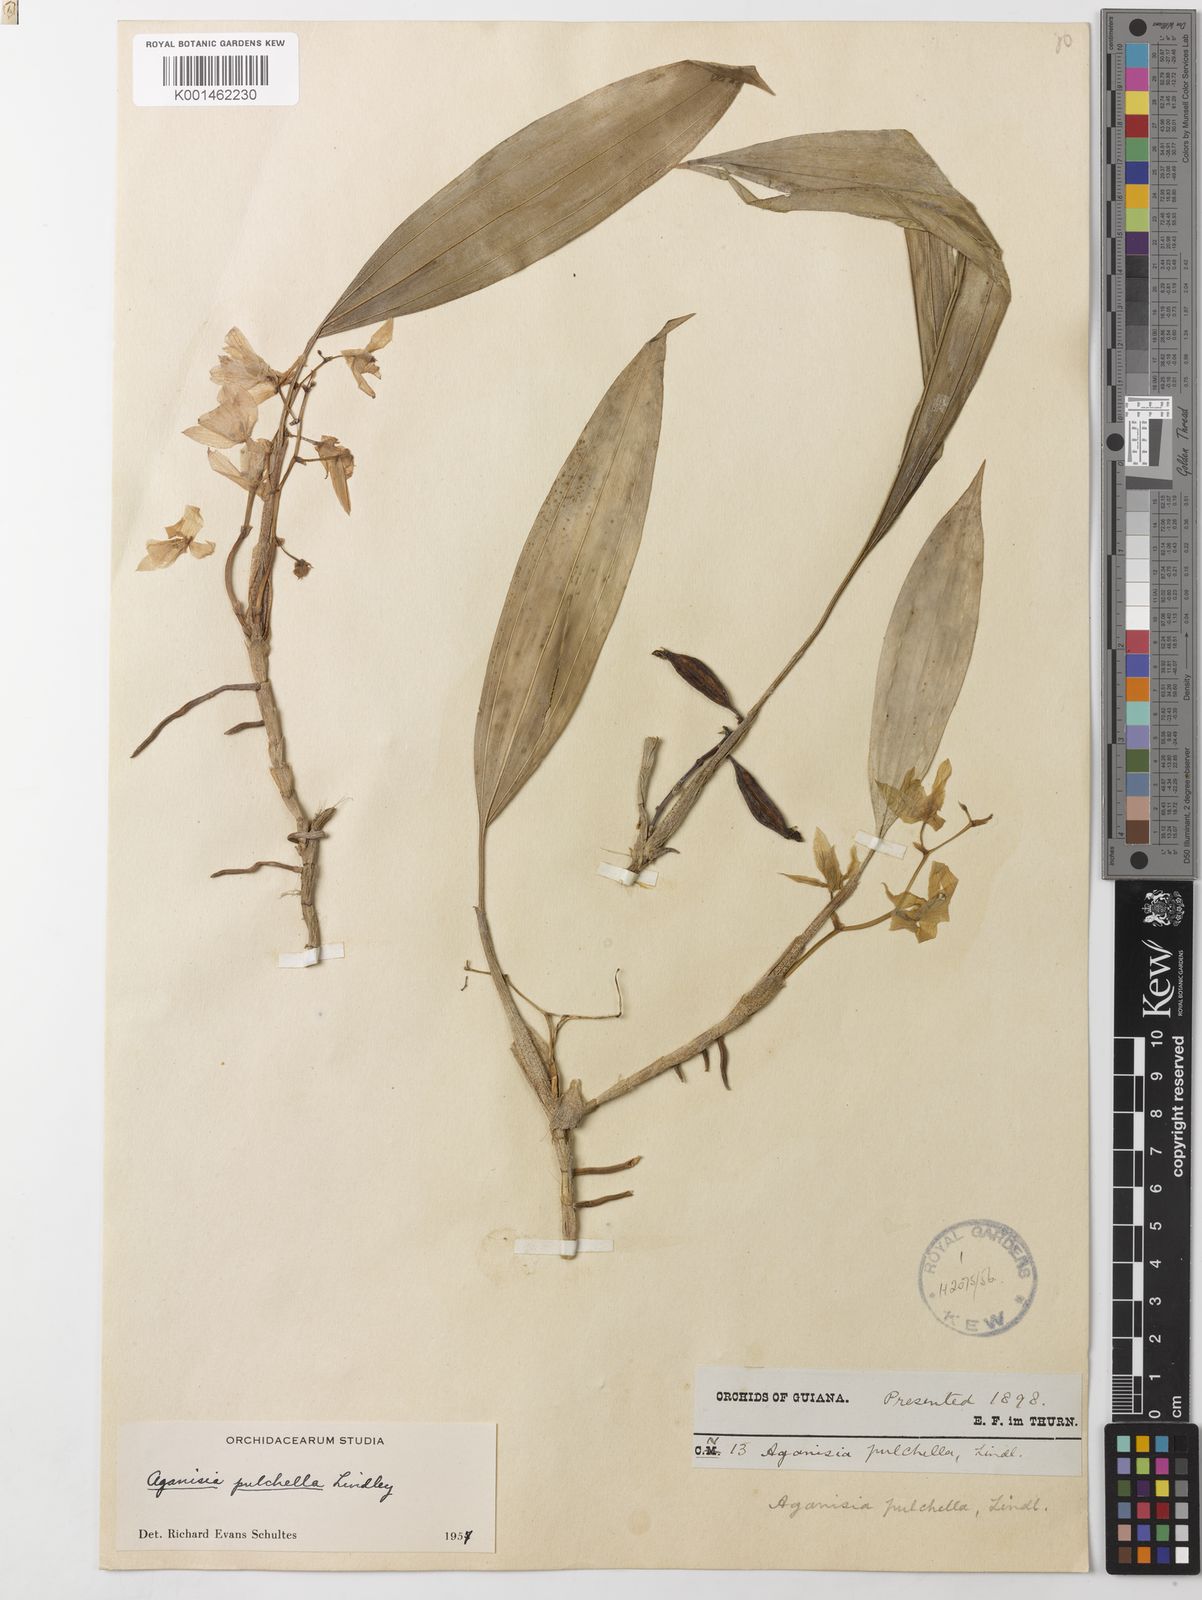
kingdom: Plantae
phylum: Tracheophyta
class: Liliopsida
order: Asparagales
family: Orchidaceae
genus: Aganisia
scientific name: Aganisia pulchella
